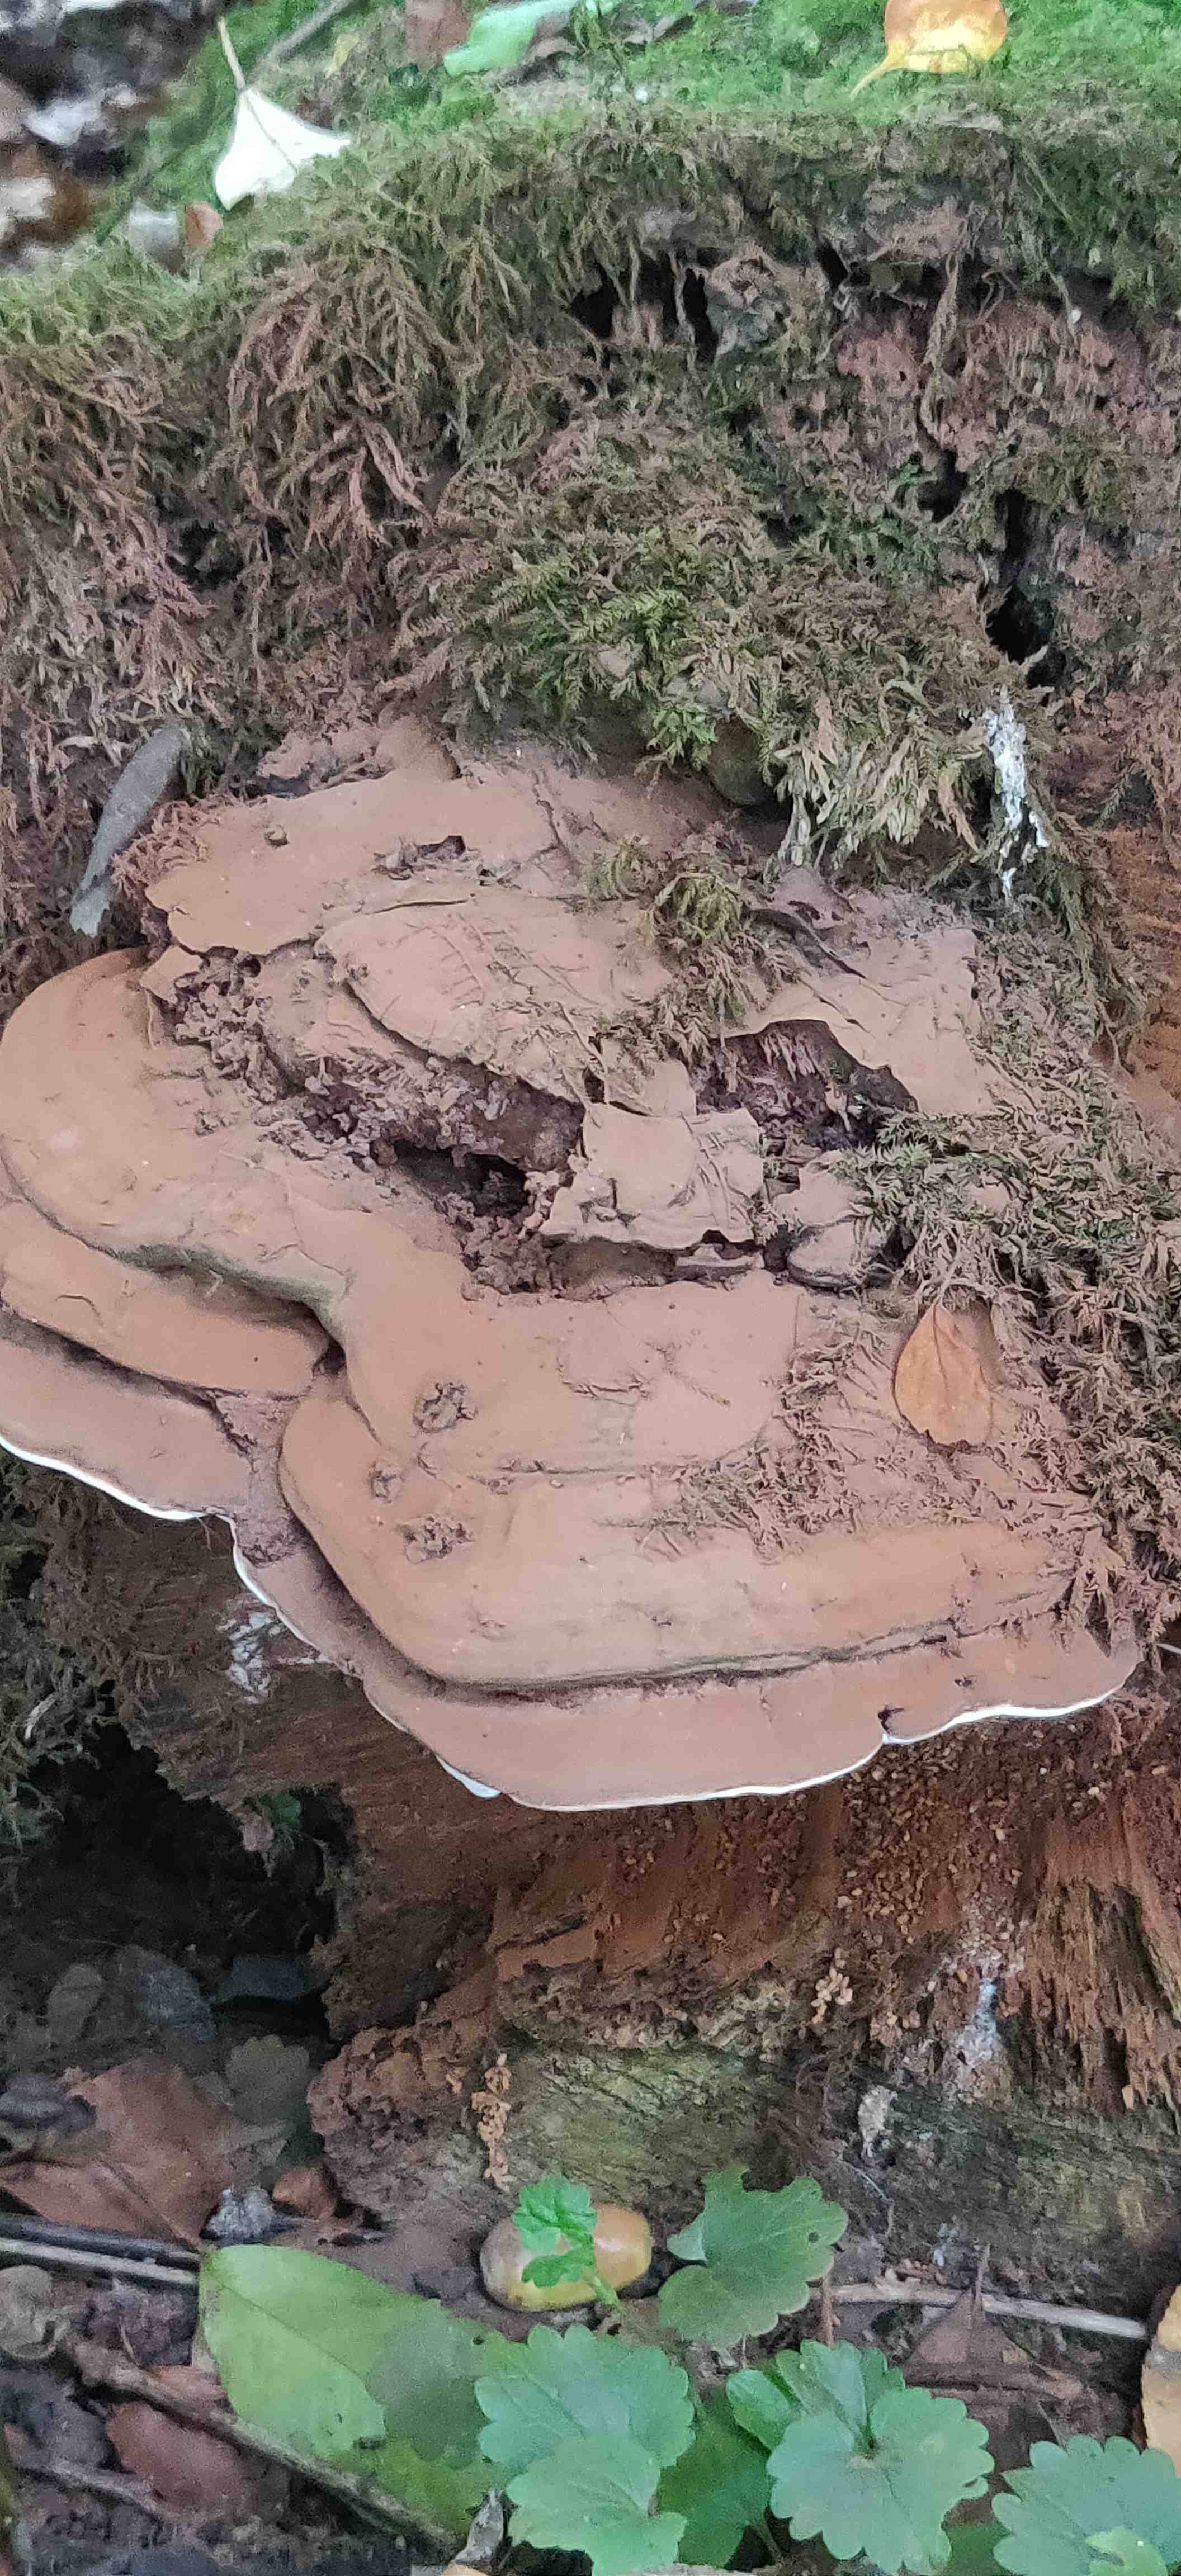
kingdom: Fungi
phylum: Basidiomycota
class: Agaricomycetes
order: Polyporales
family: Polyporaceae
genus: Ganoderma
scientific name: Ganoderma applanatum
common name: flad lakporesvamp
